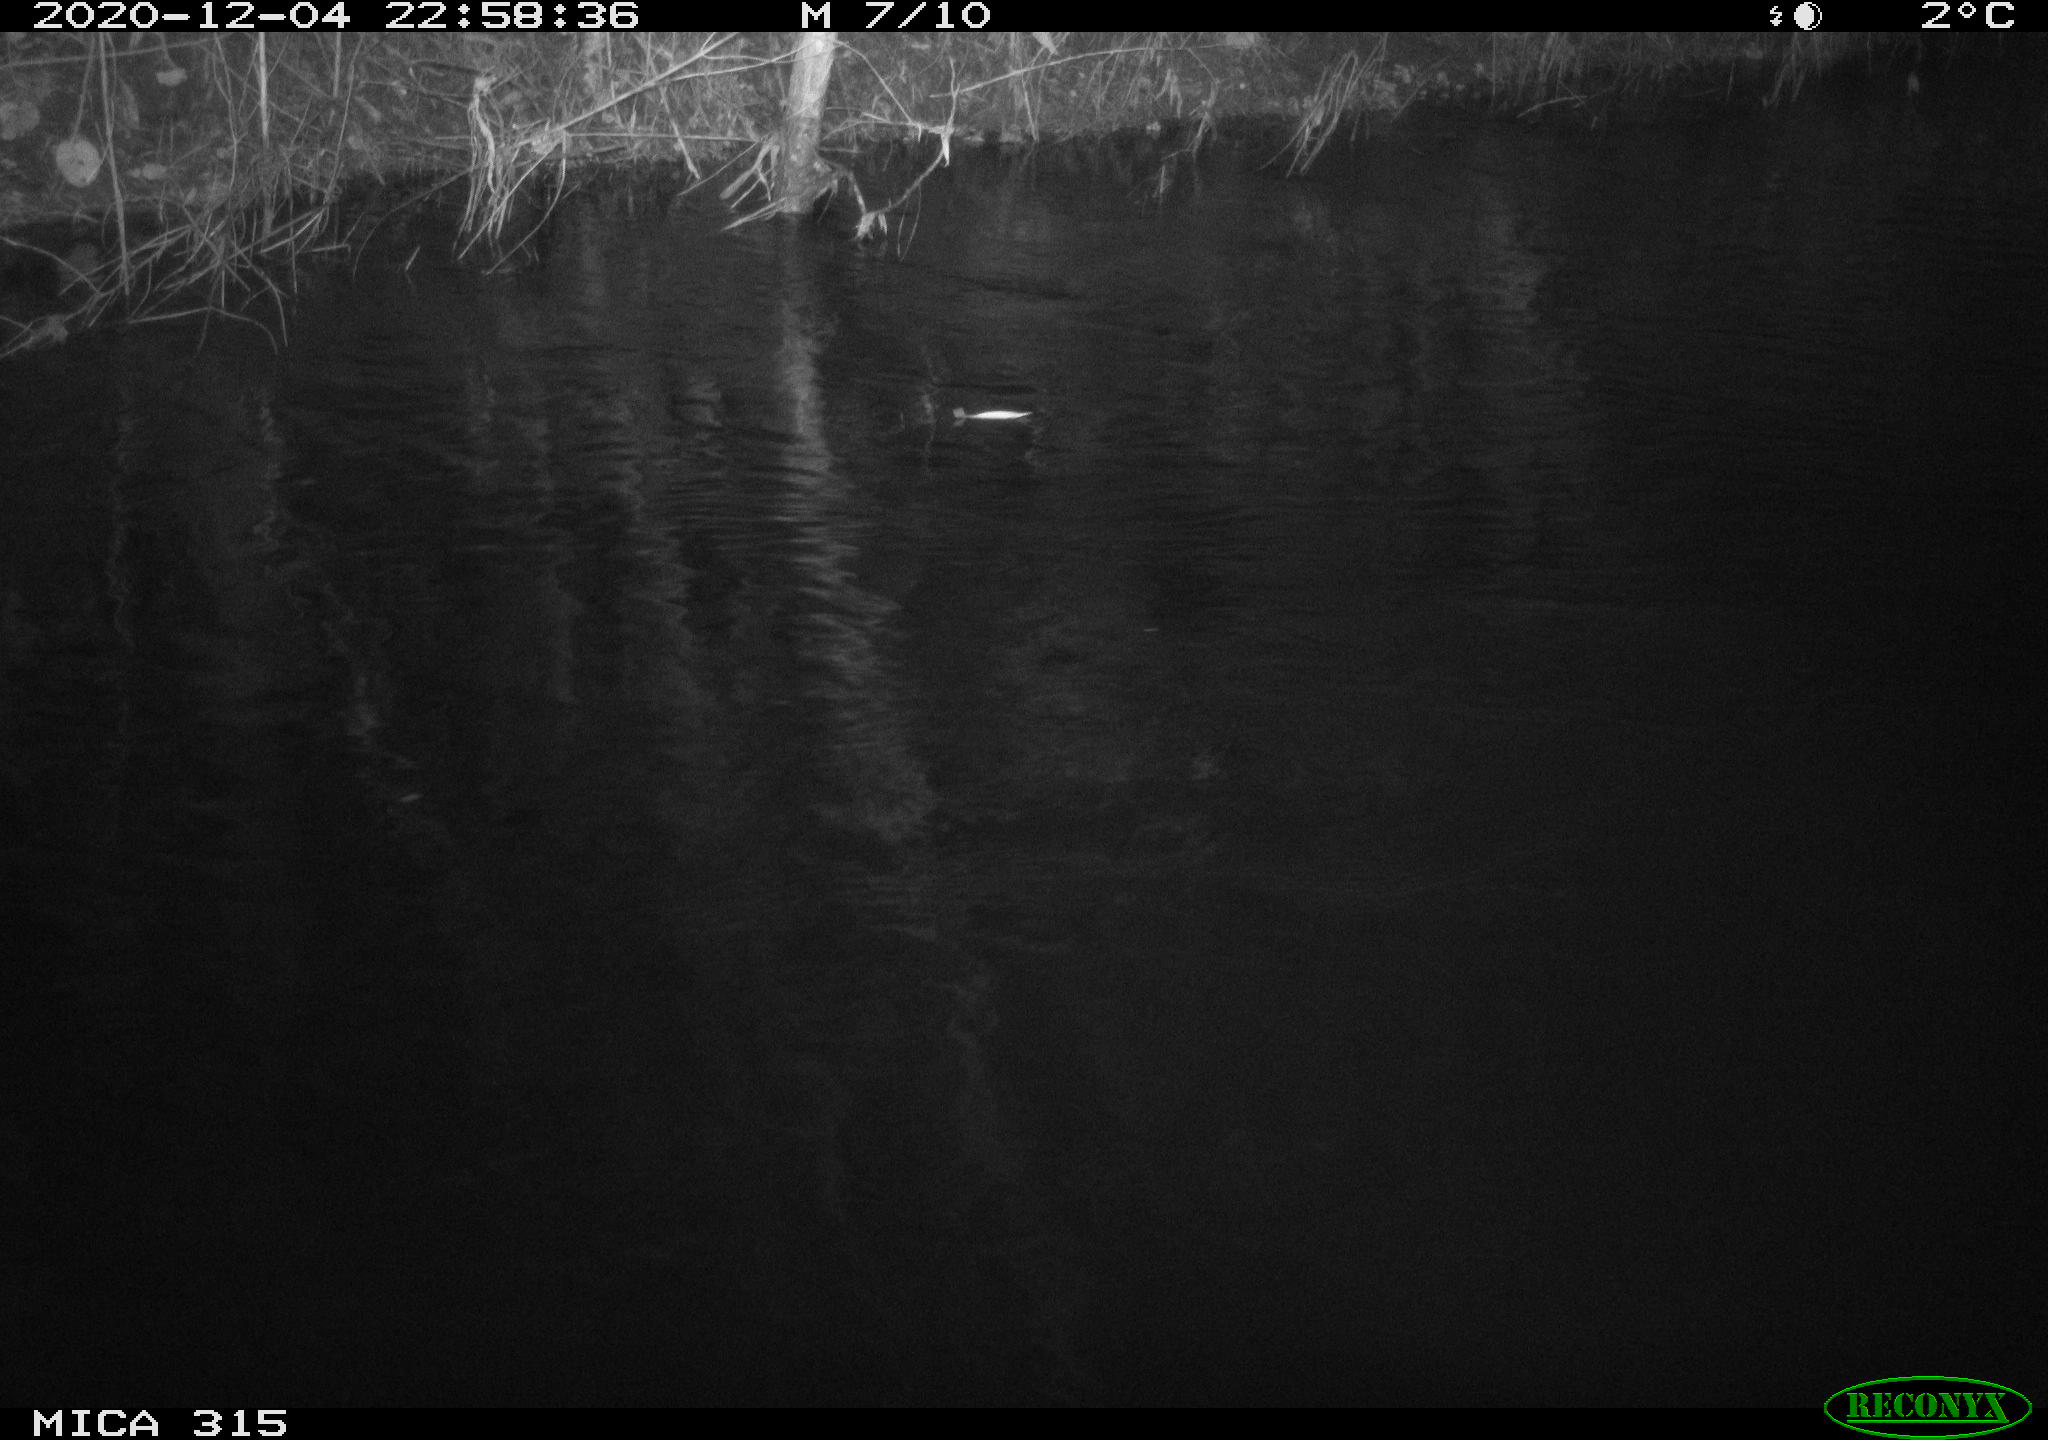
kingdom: Animalia
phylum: Chordata
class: Aves
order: Anseriformes
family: Anatidae
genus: Anas
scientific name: Anas platyrhynchos
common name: Mallard
